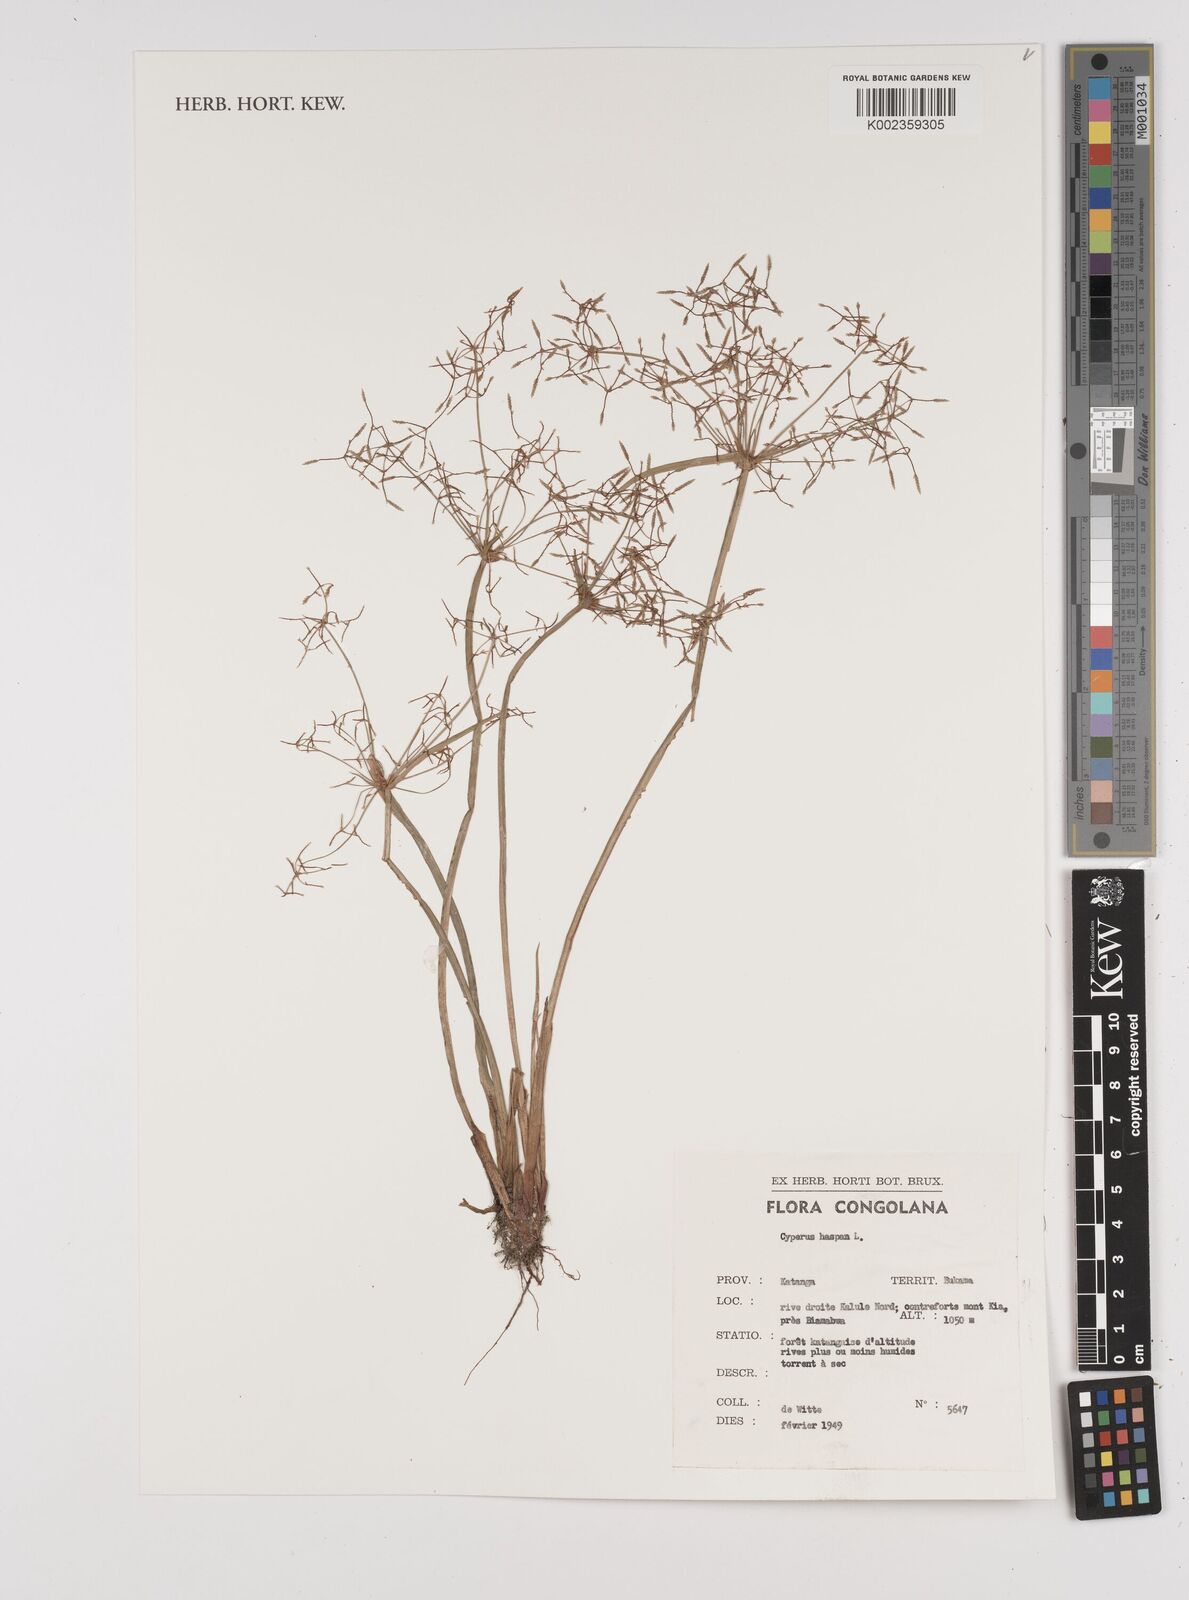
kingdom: Plantae
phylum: Tracheophyta
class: Liliopsida
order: Poales
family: Cyperaceae
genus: Cyperus
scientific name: Cyperus haspan
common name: Haspan flatsedge
